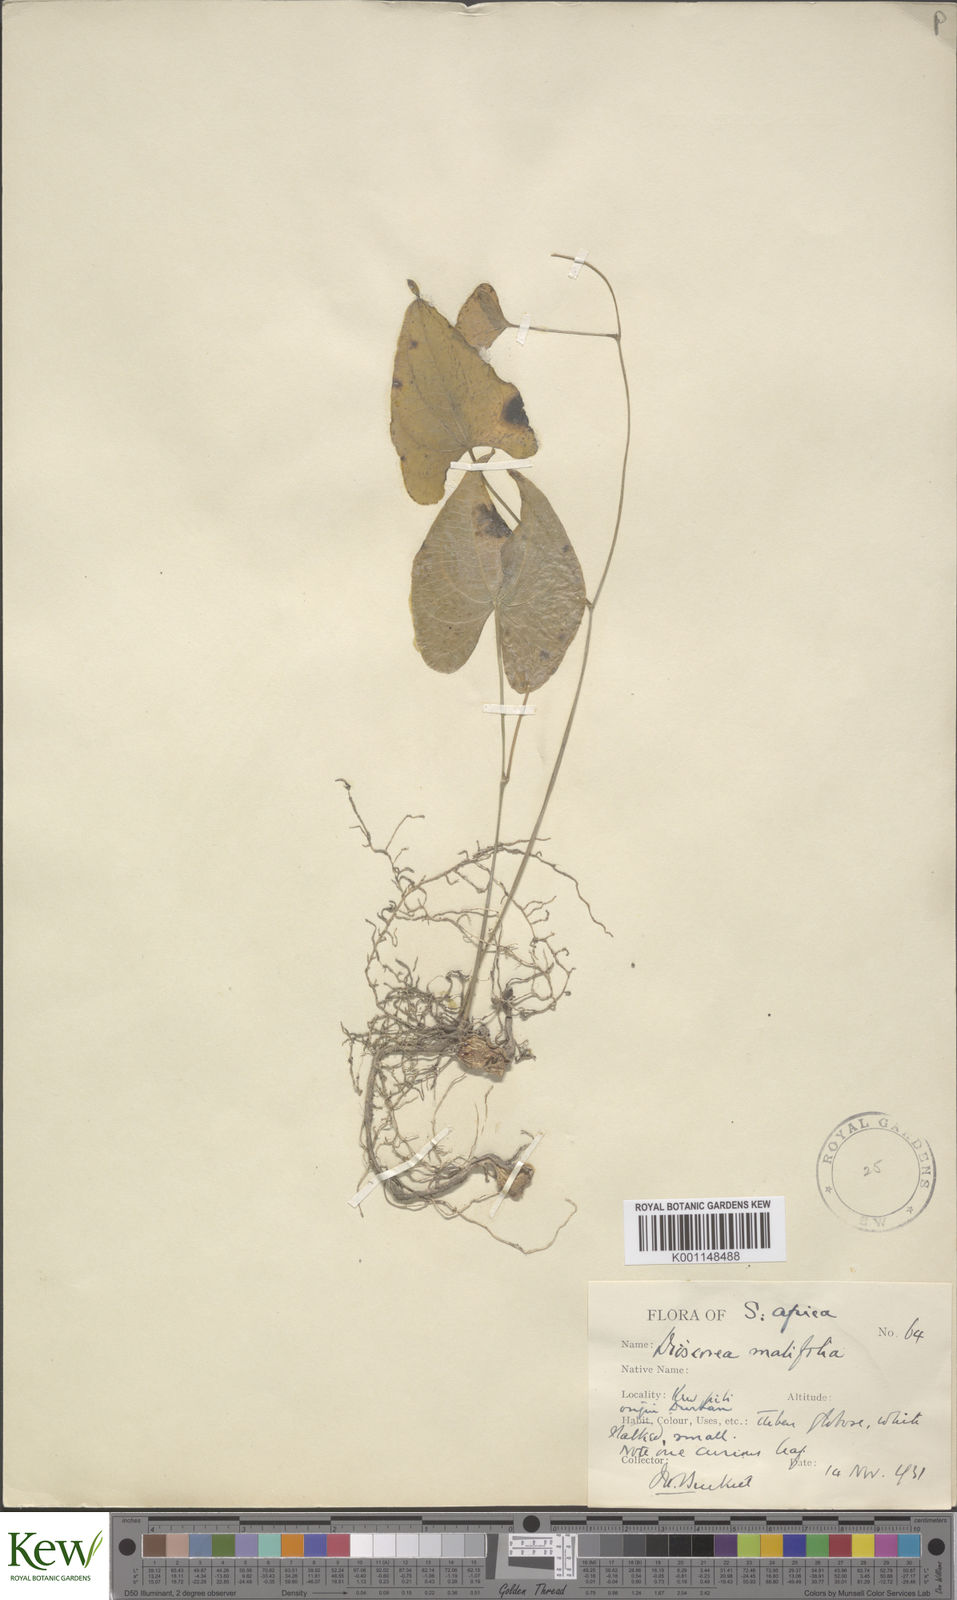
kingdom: Plantae
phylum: Tracheophyta
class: Liliopsida
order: Dioscoreales
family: Dioscoreaceae
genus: Dioscorea
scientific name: Dioscorea cotinifolia
